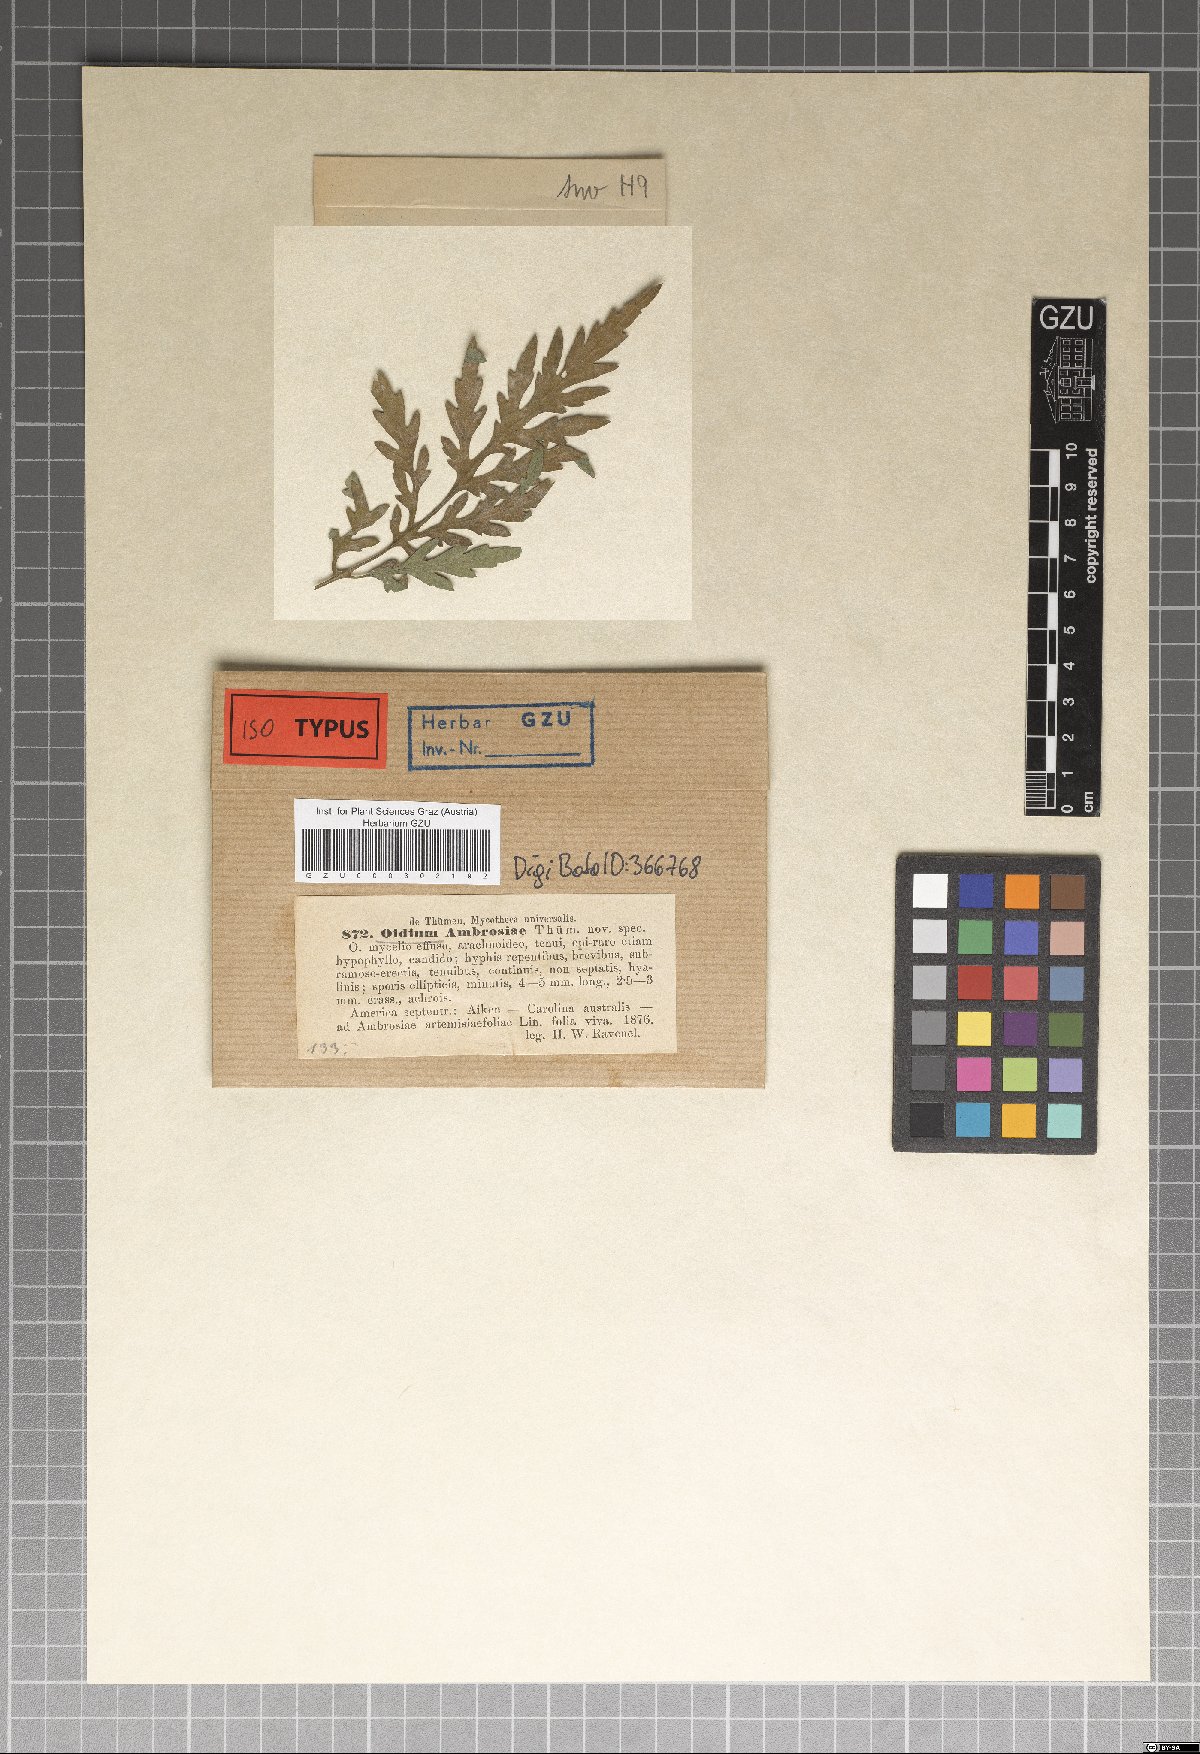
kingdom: Fungi
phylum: Ascomycota
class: Leotiomycetes
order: Helotiales
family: Erysiphaceae
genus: Oidium
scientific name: Oidium ambrosiae
